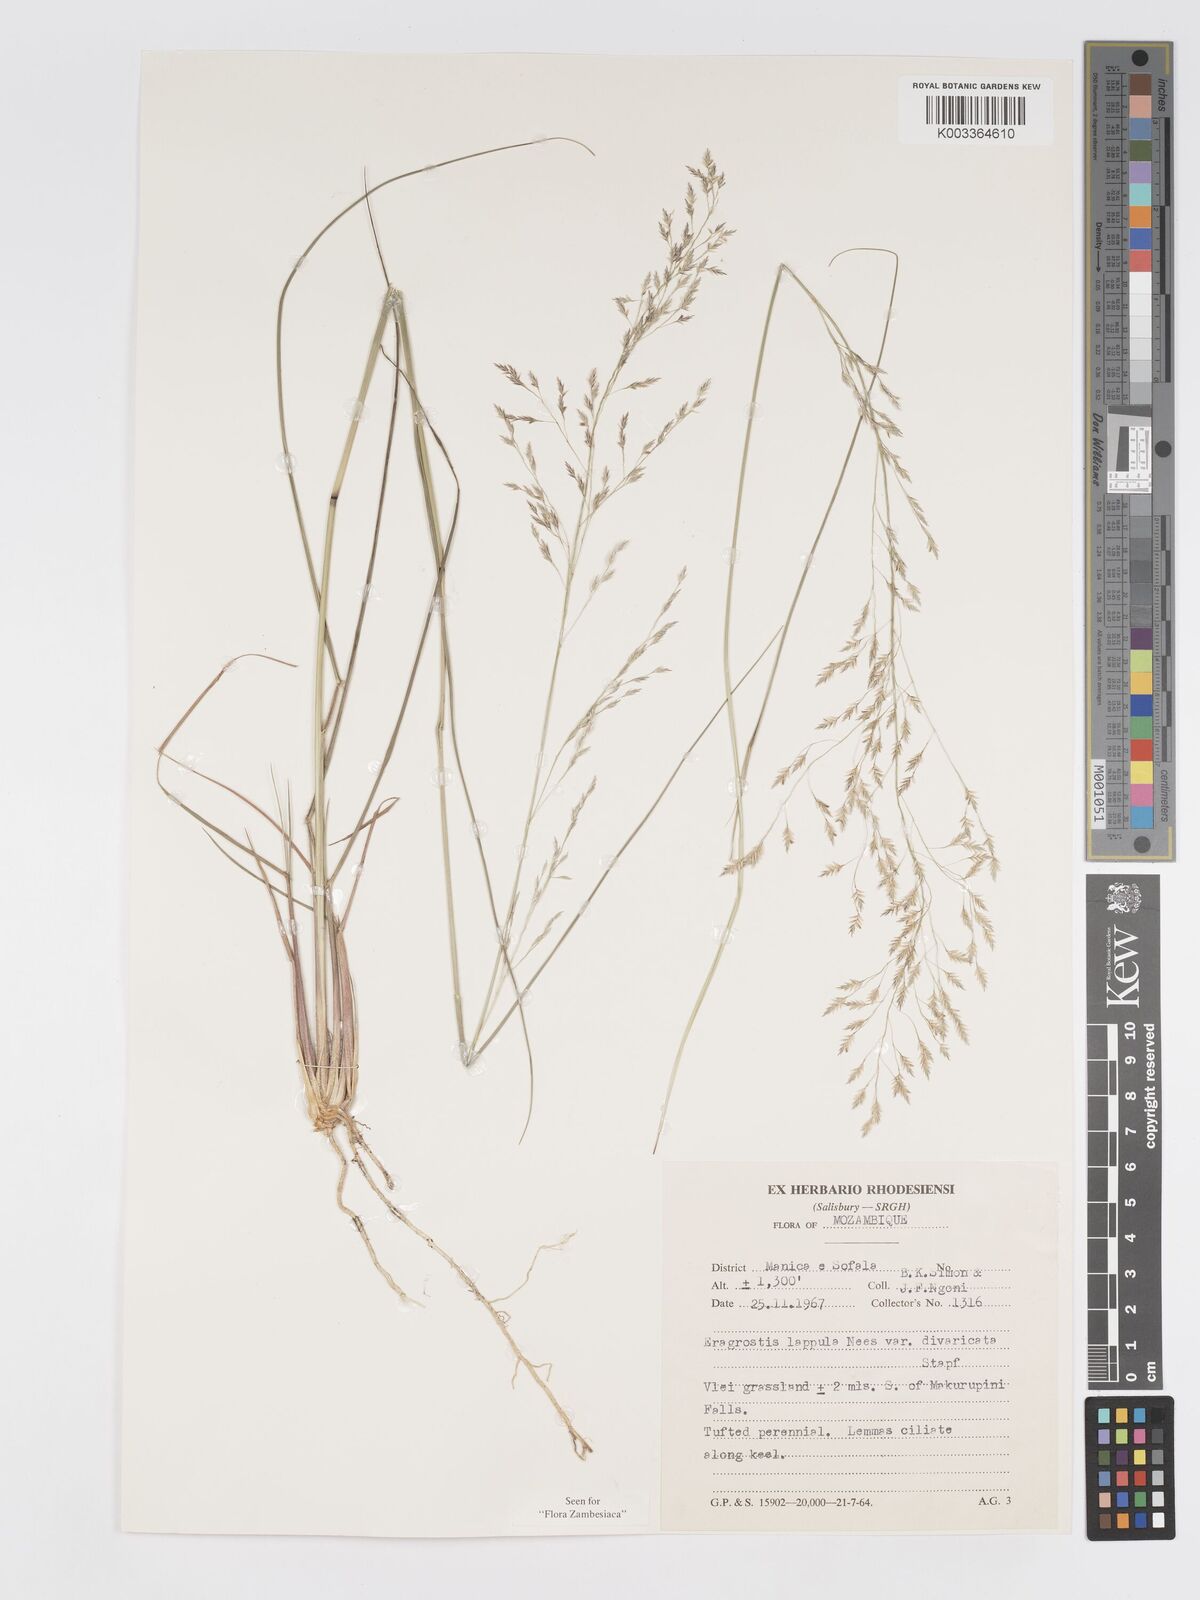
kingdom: Plantae
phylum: Tracheophyta
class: Liliopsida
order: Poales
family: Poaceae
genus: Eragrostis
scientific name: Eragrostis lappula
